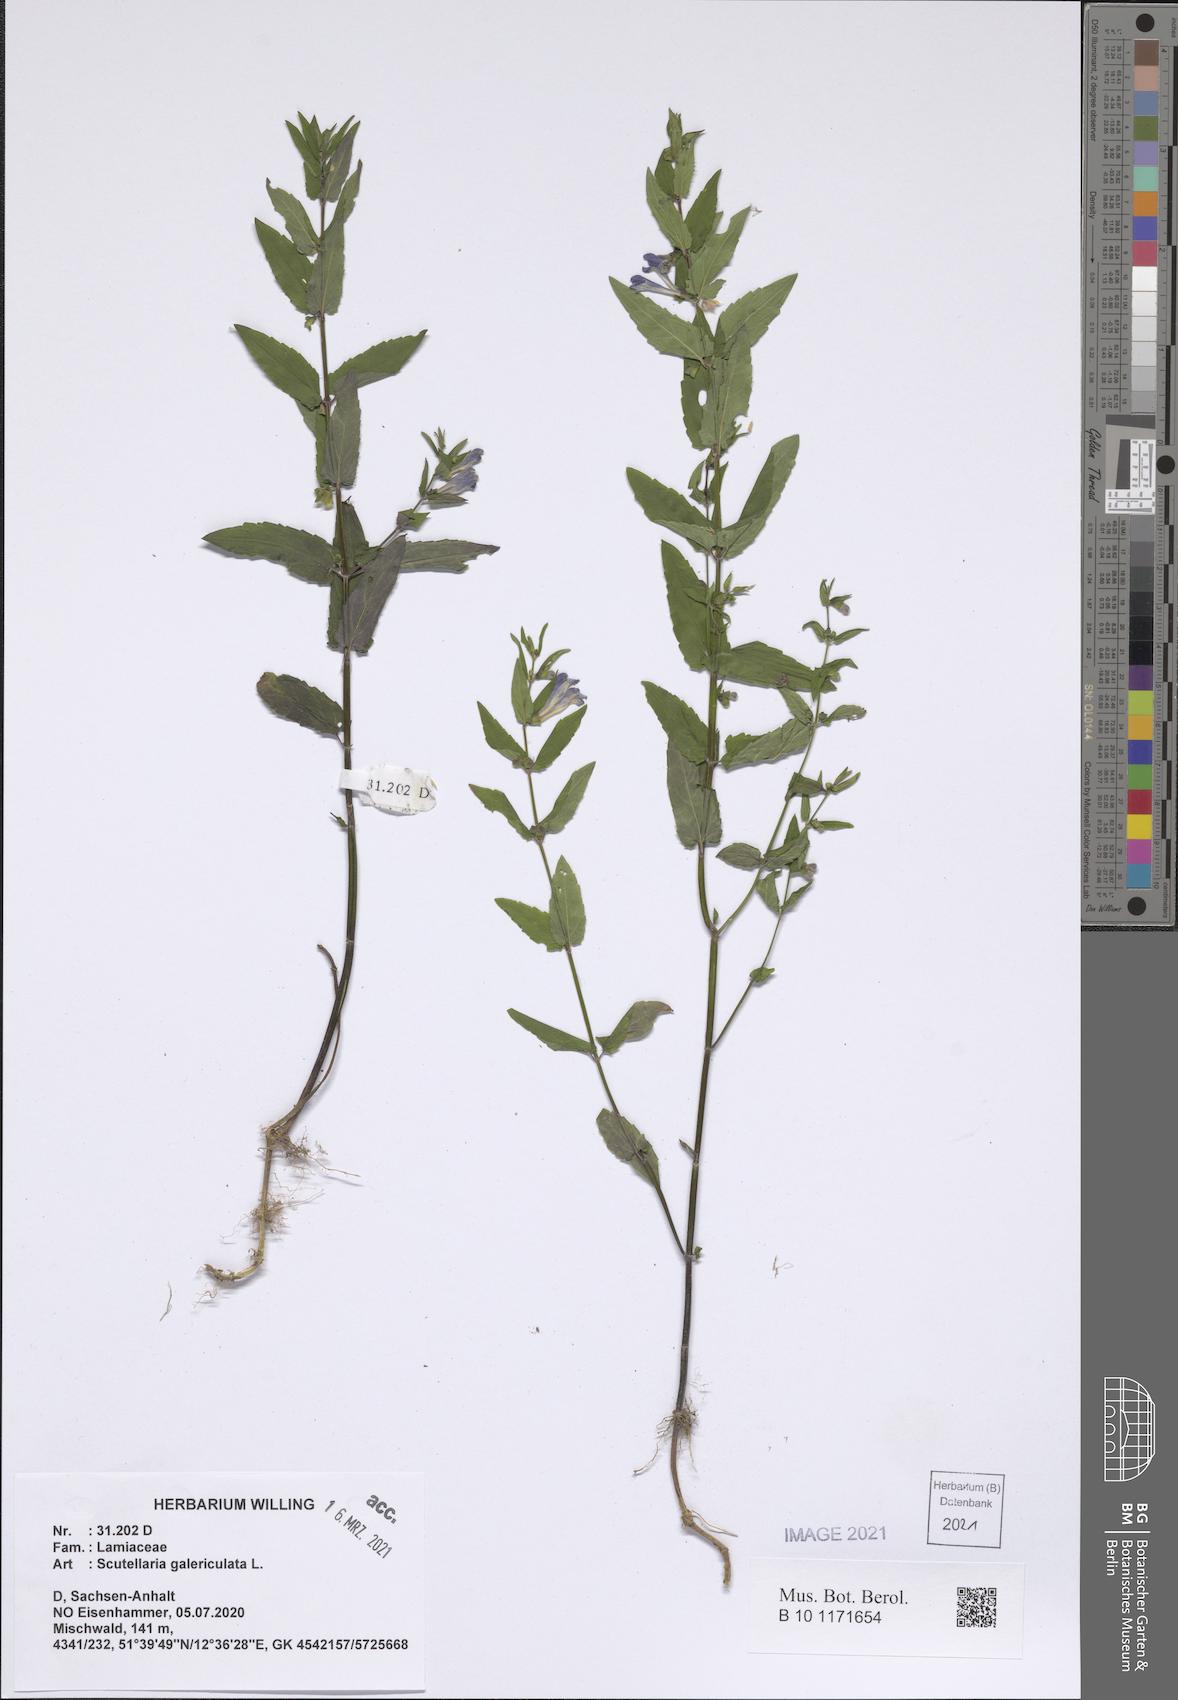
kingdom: Plantae
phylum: Tracheophyta
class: Magnoliopsida
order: Lamiales
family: Lamiaceae
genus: Scutellaria
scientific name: Scutellaria galericulata
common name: Skullcap
